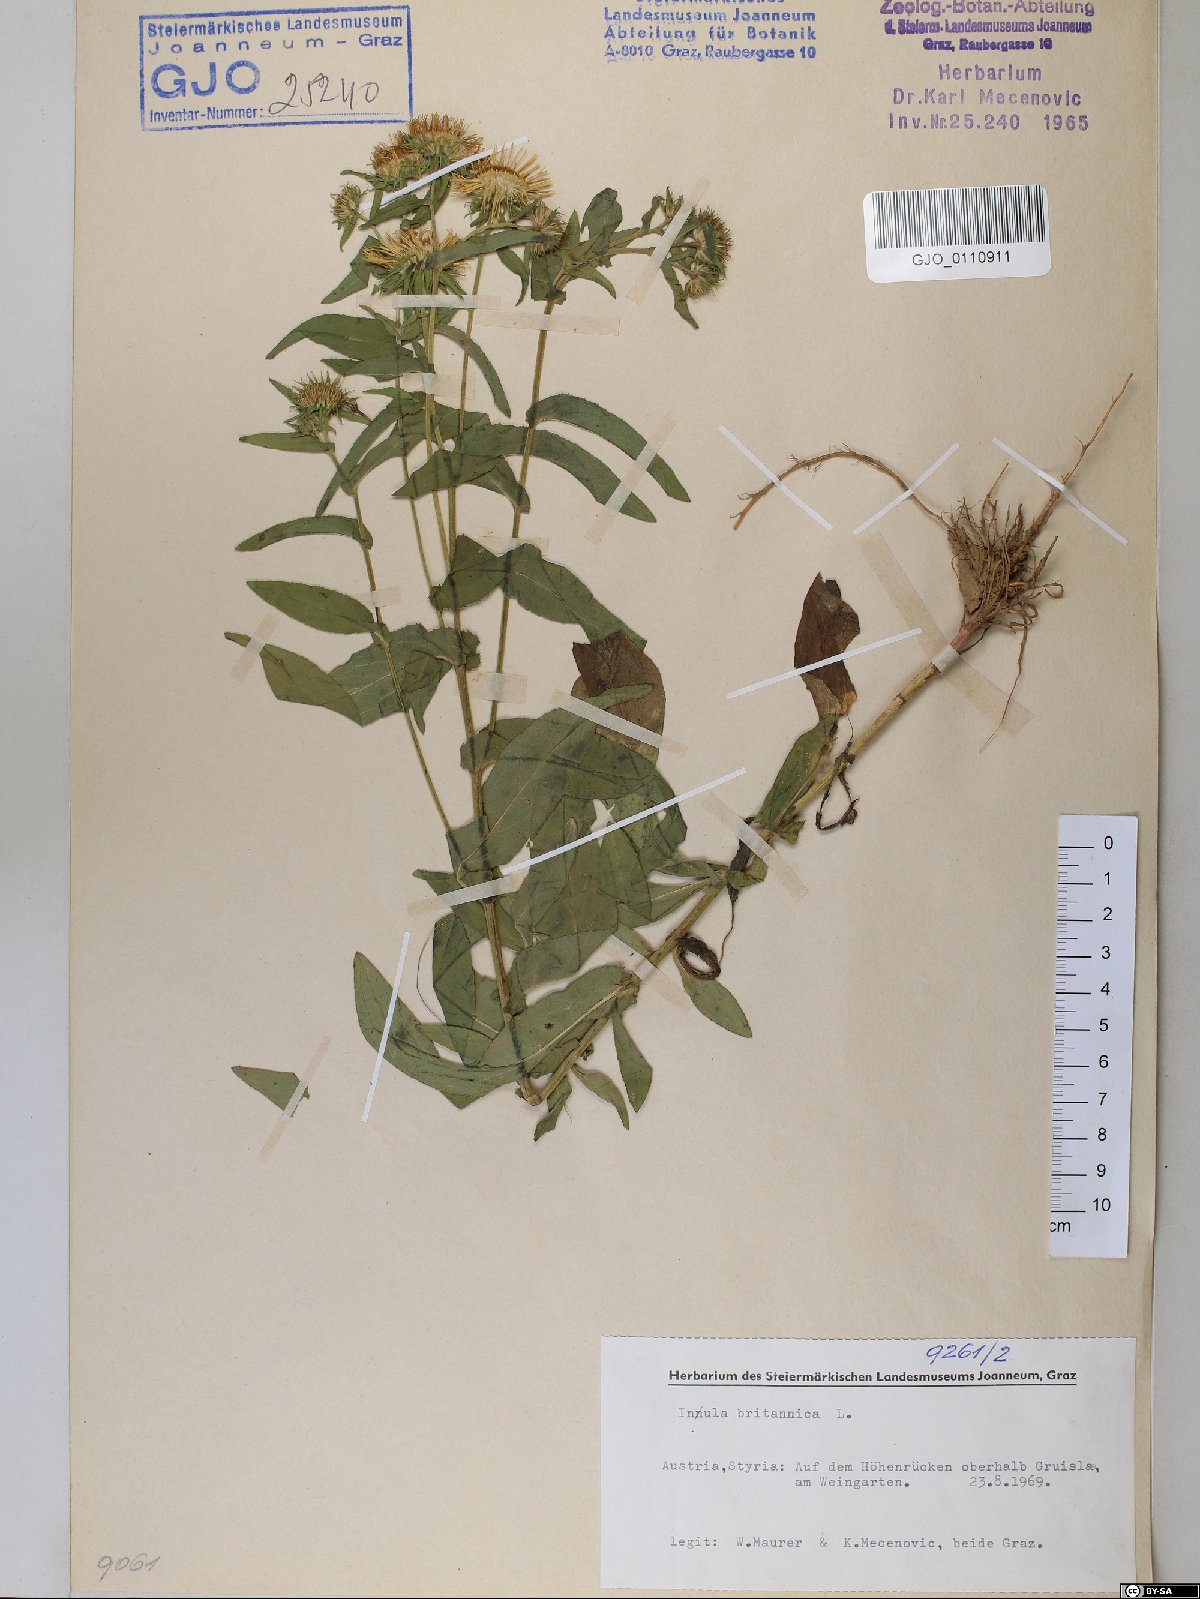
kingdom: Plantae
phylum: Tracheophyta
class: Magnoliopsida
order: Asterales
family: Asteraceae
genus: Pentanema
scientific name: Pentanema britannicum
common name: British elecampane
